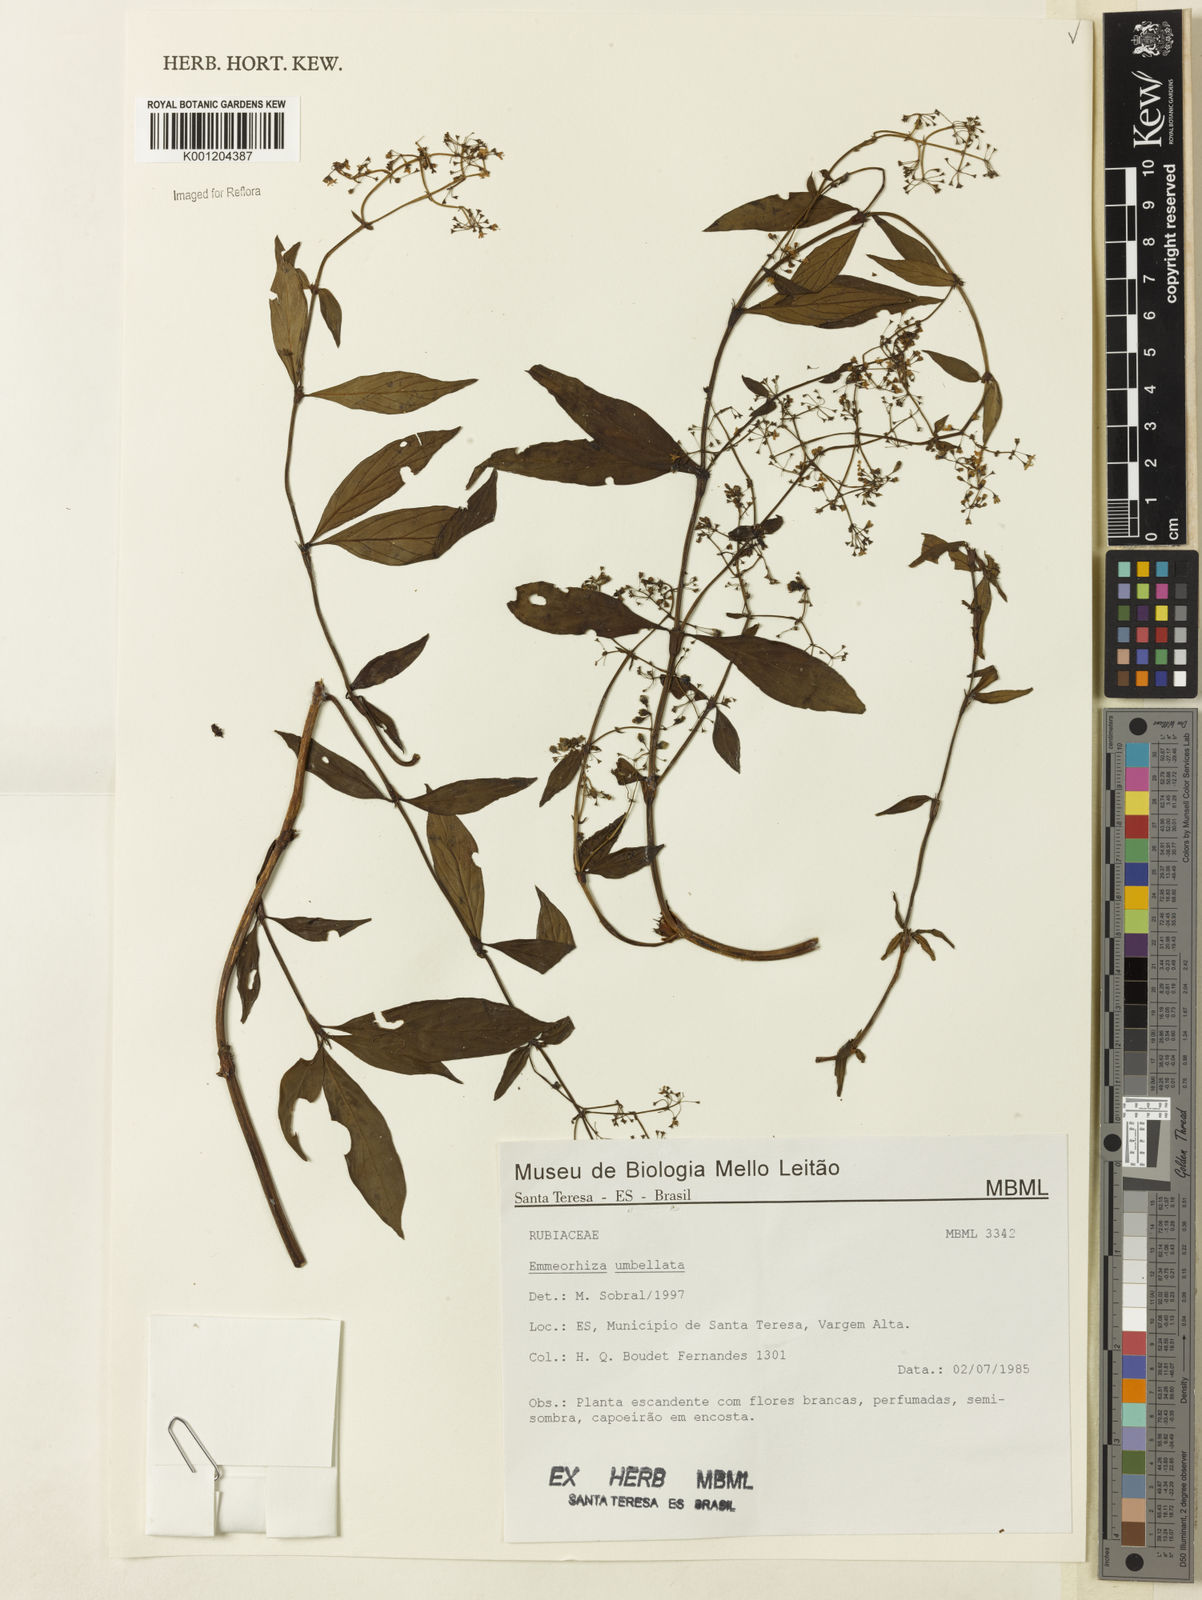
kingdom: Plantae
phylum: Tracheophyta
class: Magnoliopsida
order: Gentianales
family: Rubiaceae
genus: Emmeorhiza
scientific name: Emmeorhiza umbellata
